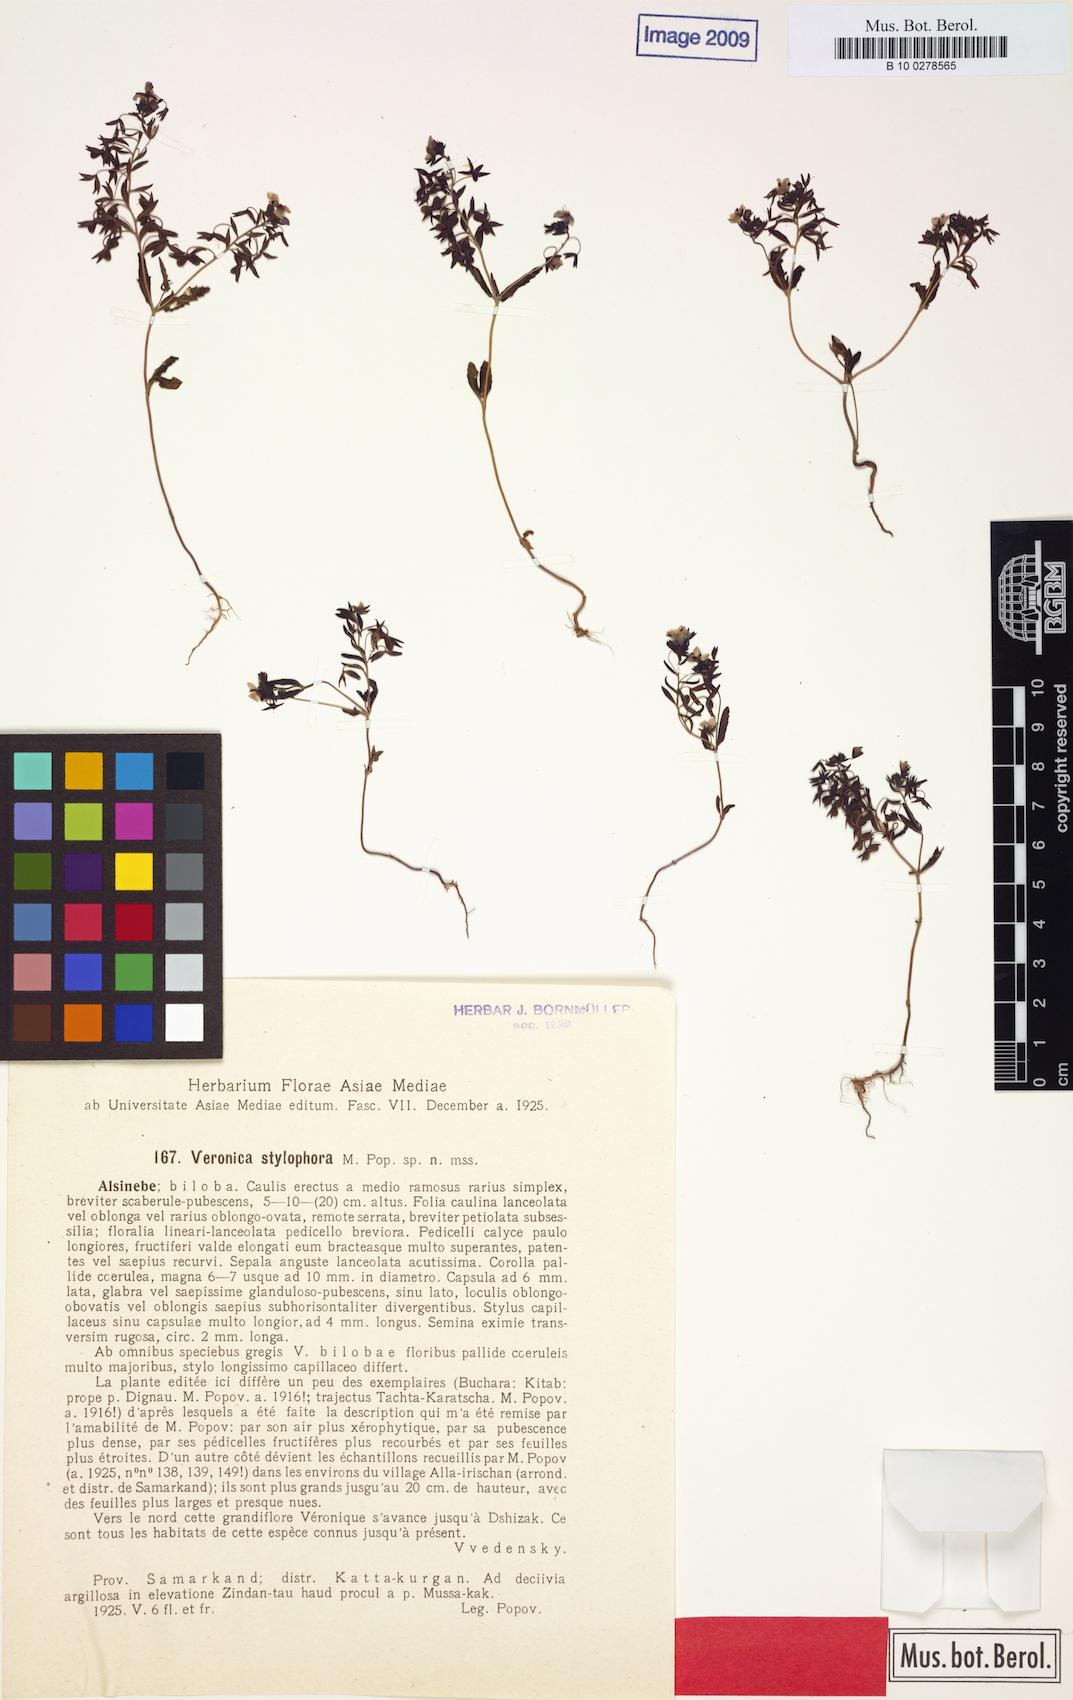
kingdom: Plantae
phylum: Tracheophyta
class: Magnoliopsida
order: Lamiales
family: Plantaginaceae
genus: Veronica
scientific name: Veronica stylophora
